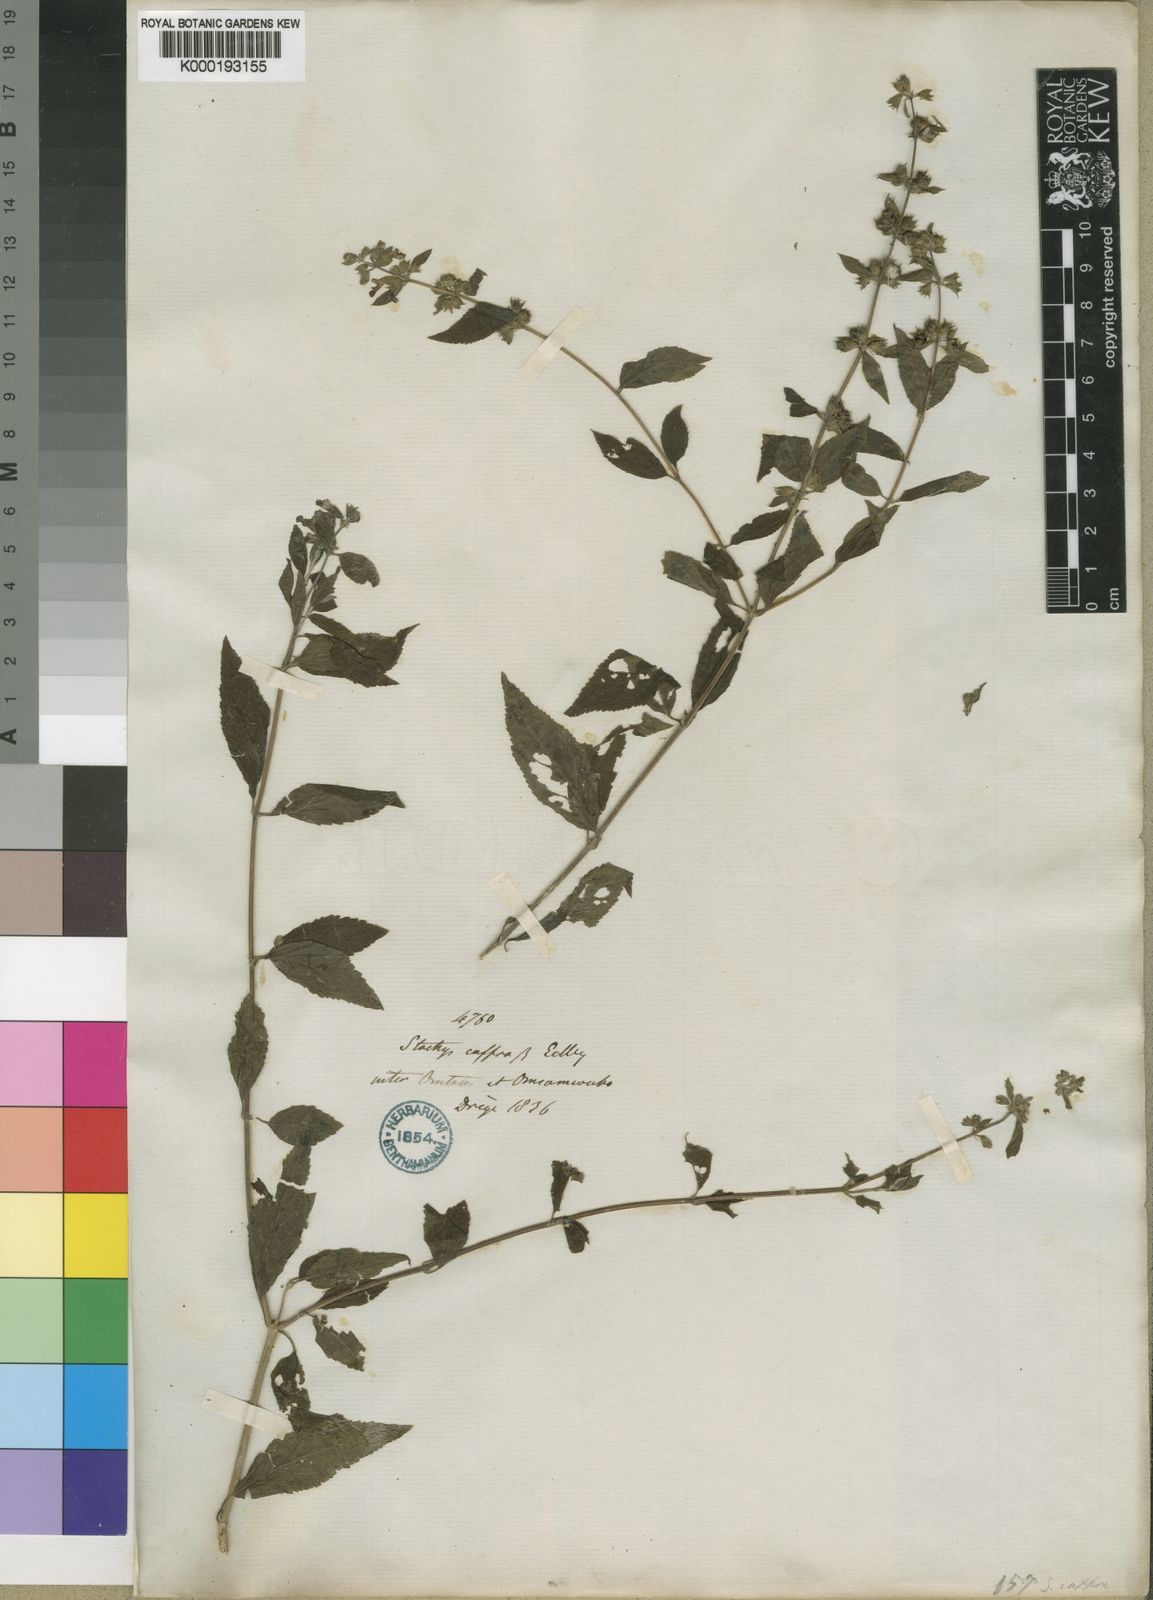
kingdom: Plantae
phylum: Tracheophyta
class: Magnoliopsida
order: Lamiales
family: Lamiaceae
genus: Stachys
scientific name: Stachys caffra
